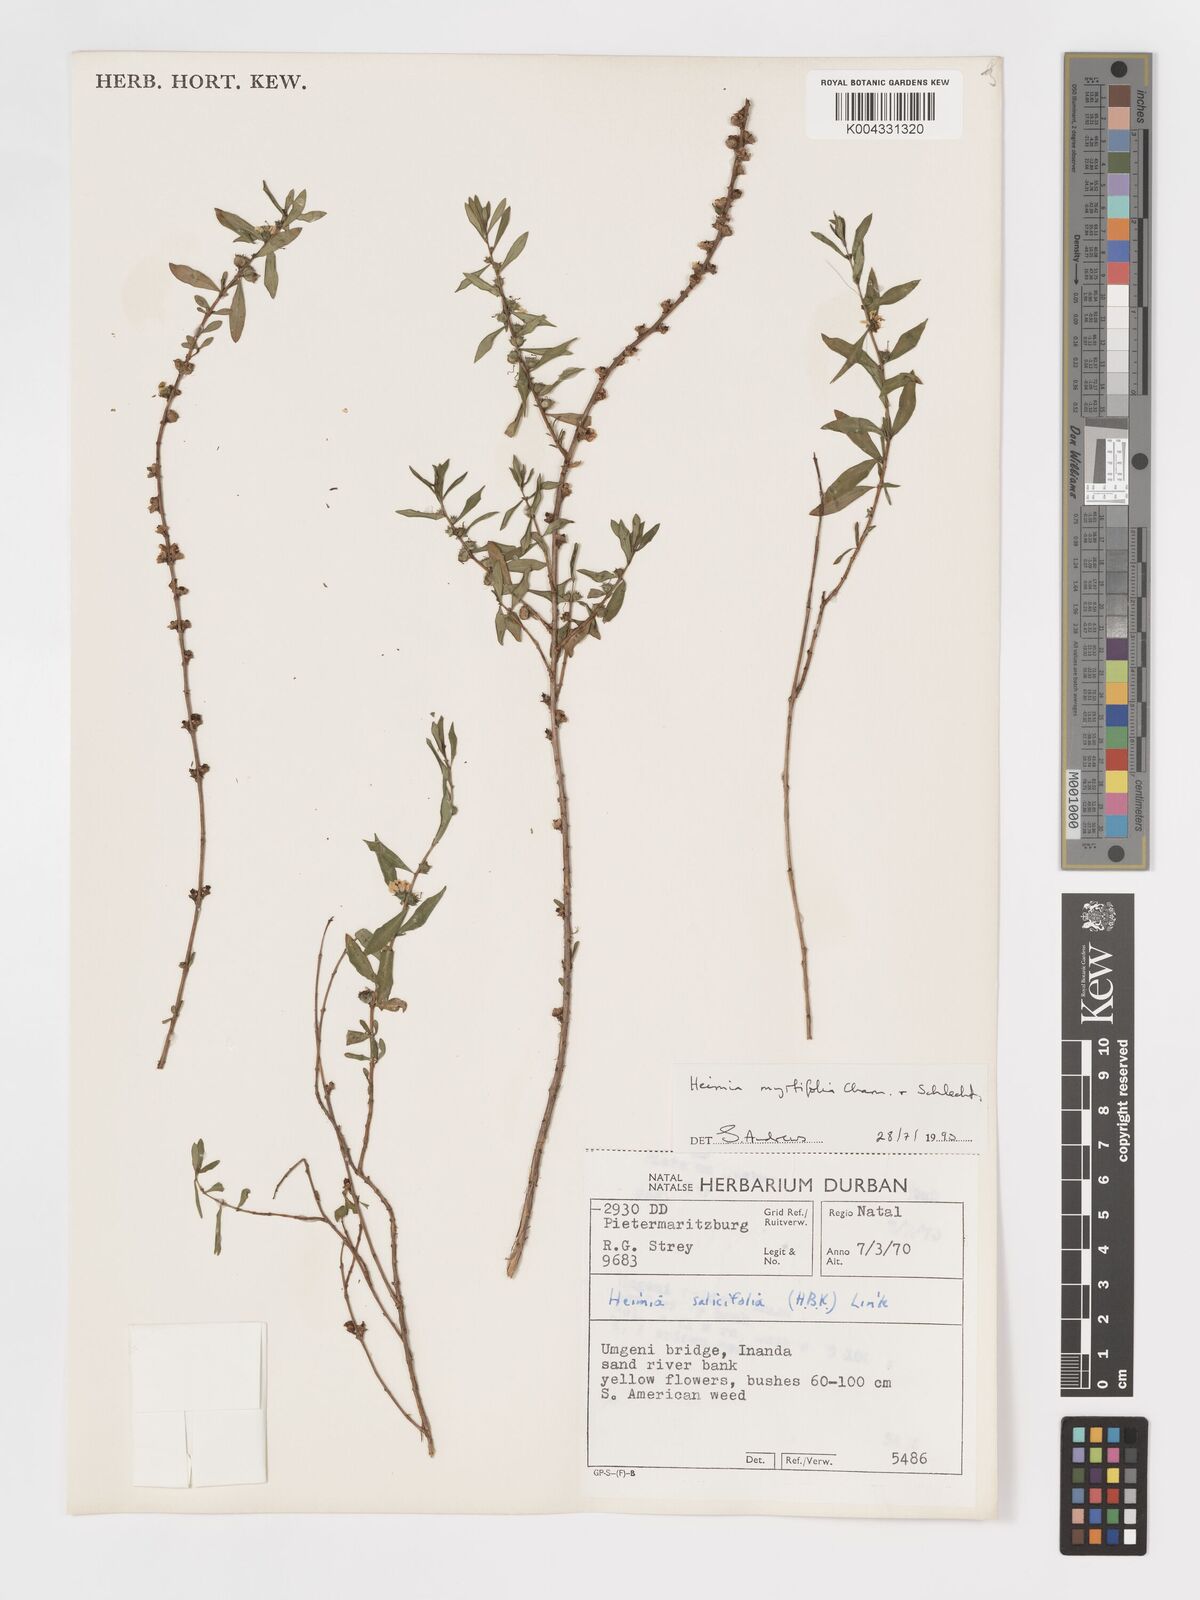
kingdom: Plantae
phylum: Tracheophyta
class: Magnoliopsida
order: Myrtales
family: Lythraceae
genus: Heimia
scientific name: Heimia
